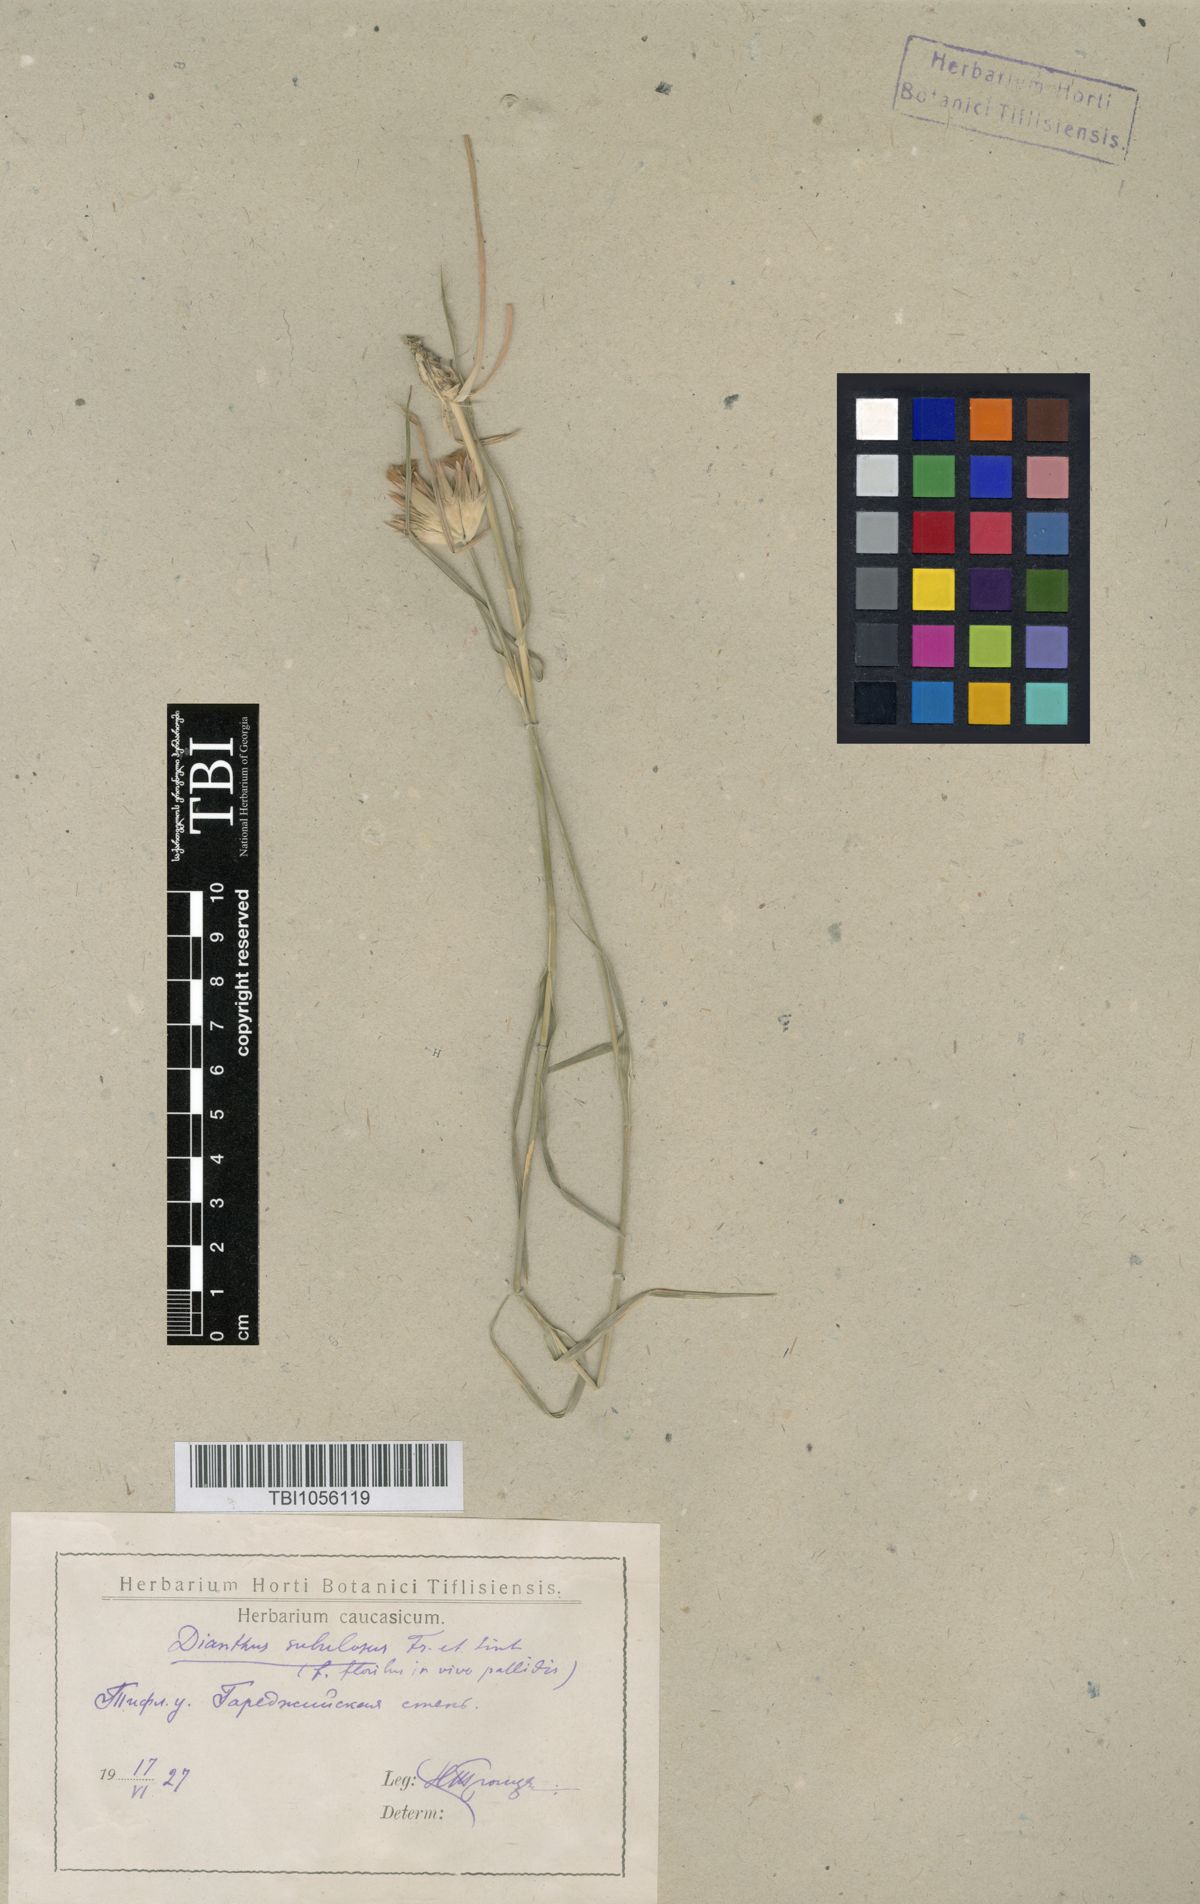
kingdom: Plantae
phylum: Tracheophyta
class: Magnoliopsida
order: Caryophyllales
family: Caryophyllaceae
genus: Dianthus
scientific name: Dianthus subulosus
